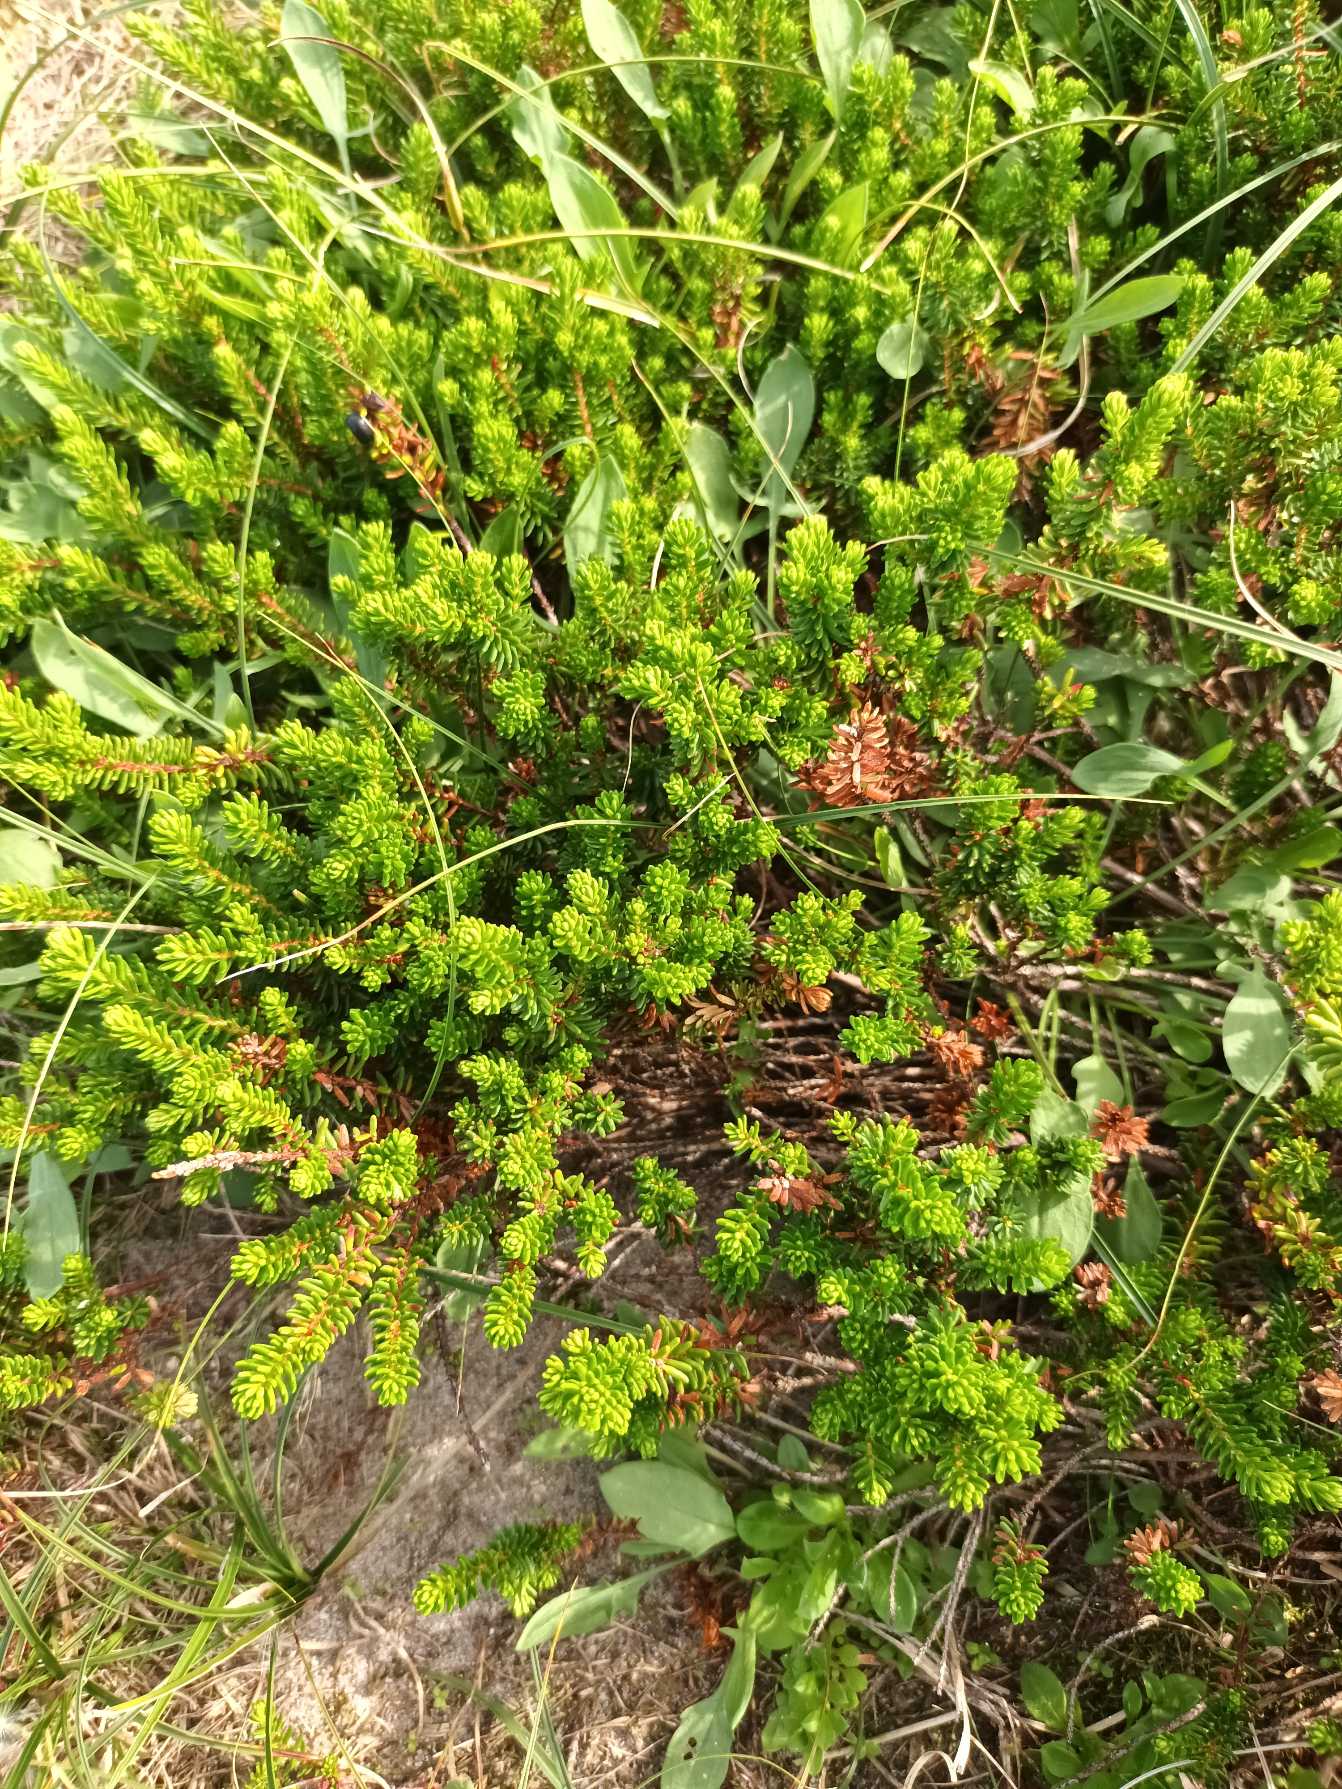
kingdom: Plantae
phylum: Tracheophyta
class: Magnoliopsida
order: Ericales
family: Ericaceae
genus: Empetrum
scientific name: Empetrum nigrum
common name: Revling
